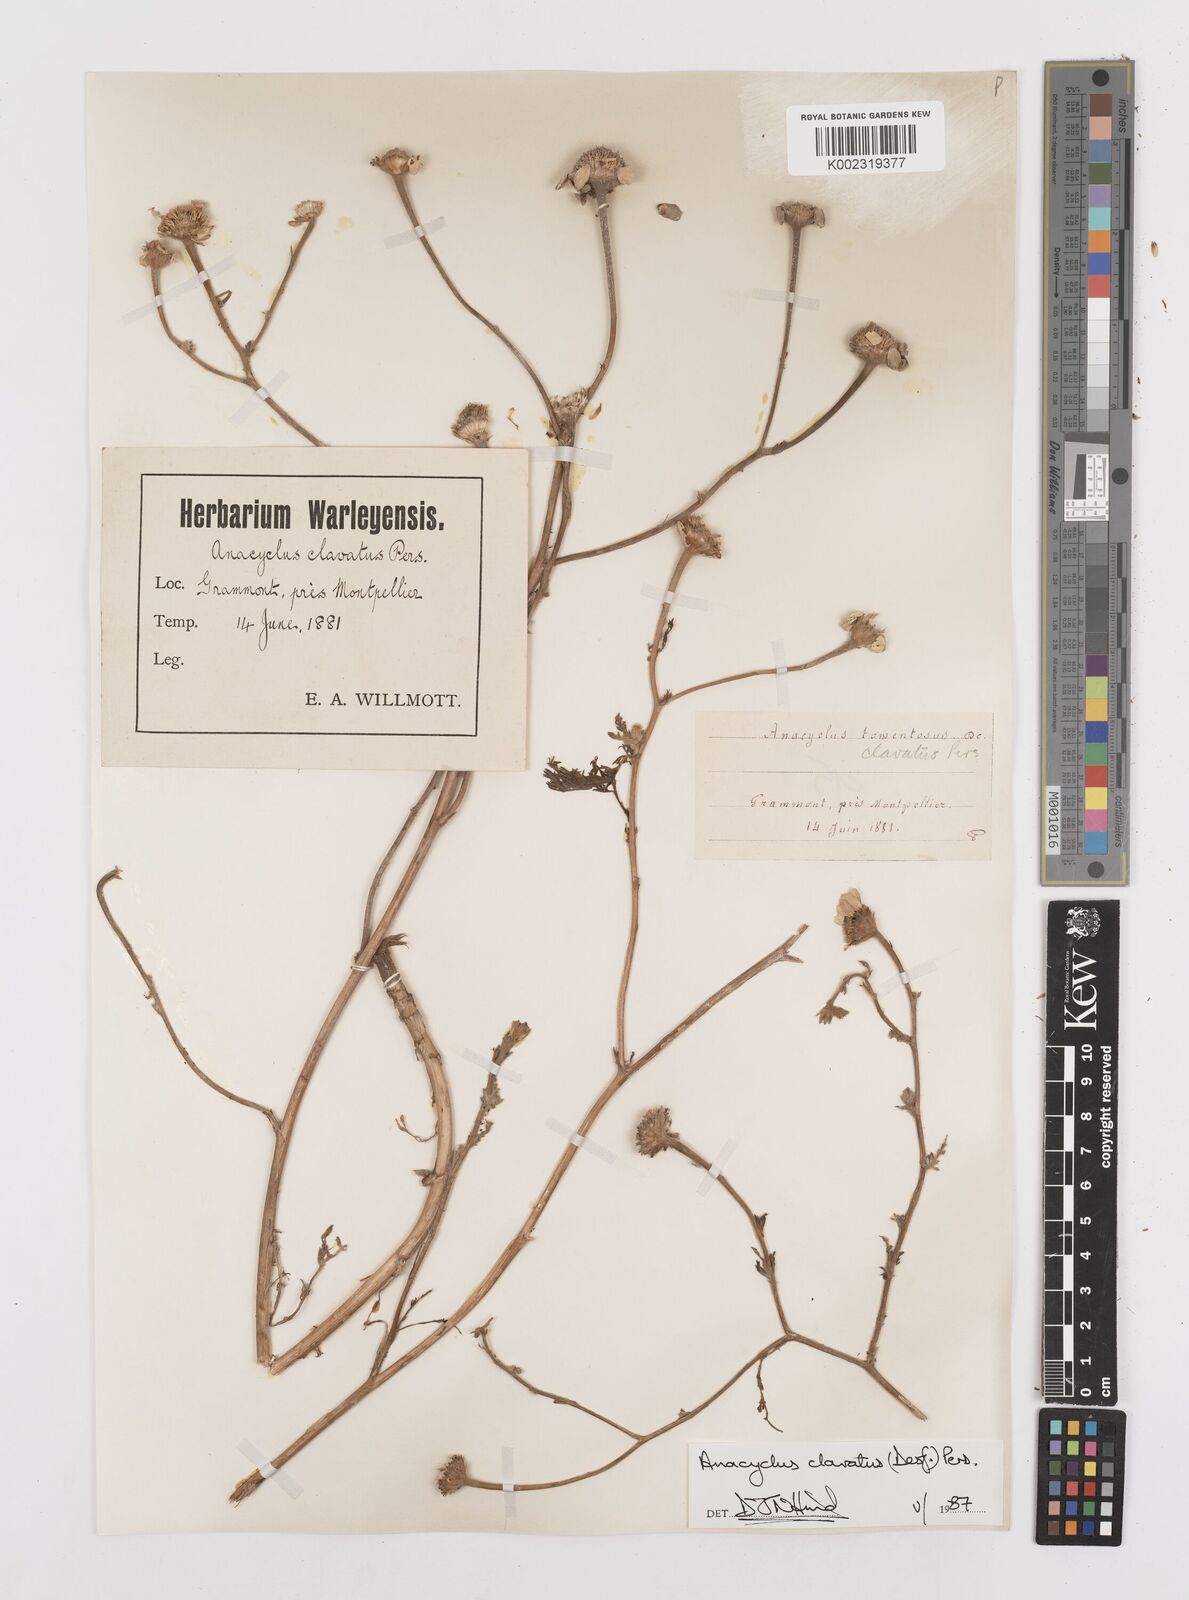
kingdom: Plantae
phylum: Tracheophyta
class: Magnoliopsida
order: Asterales
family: Asteraceae
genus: Anacyclus
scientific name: Anacyclus clavatus
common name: Whitebuttons
